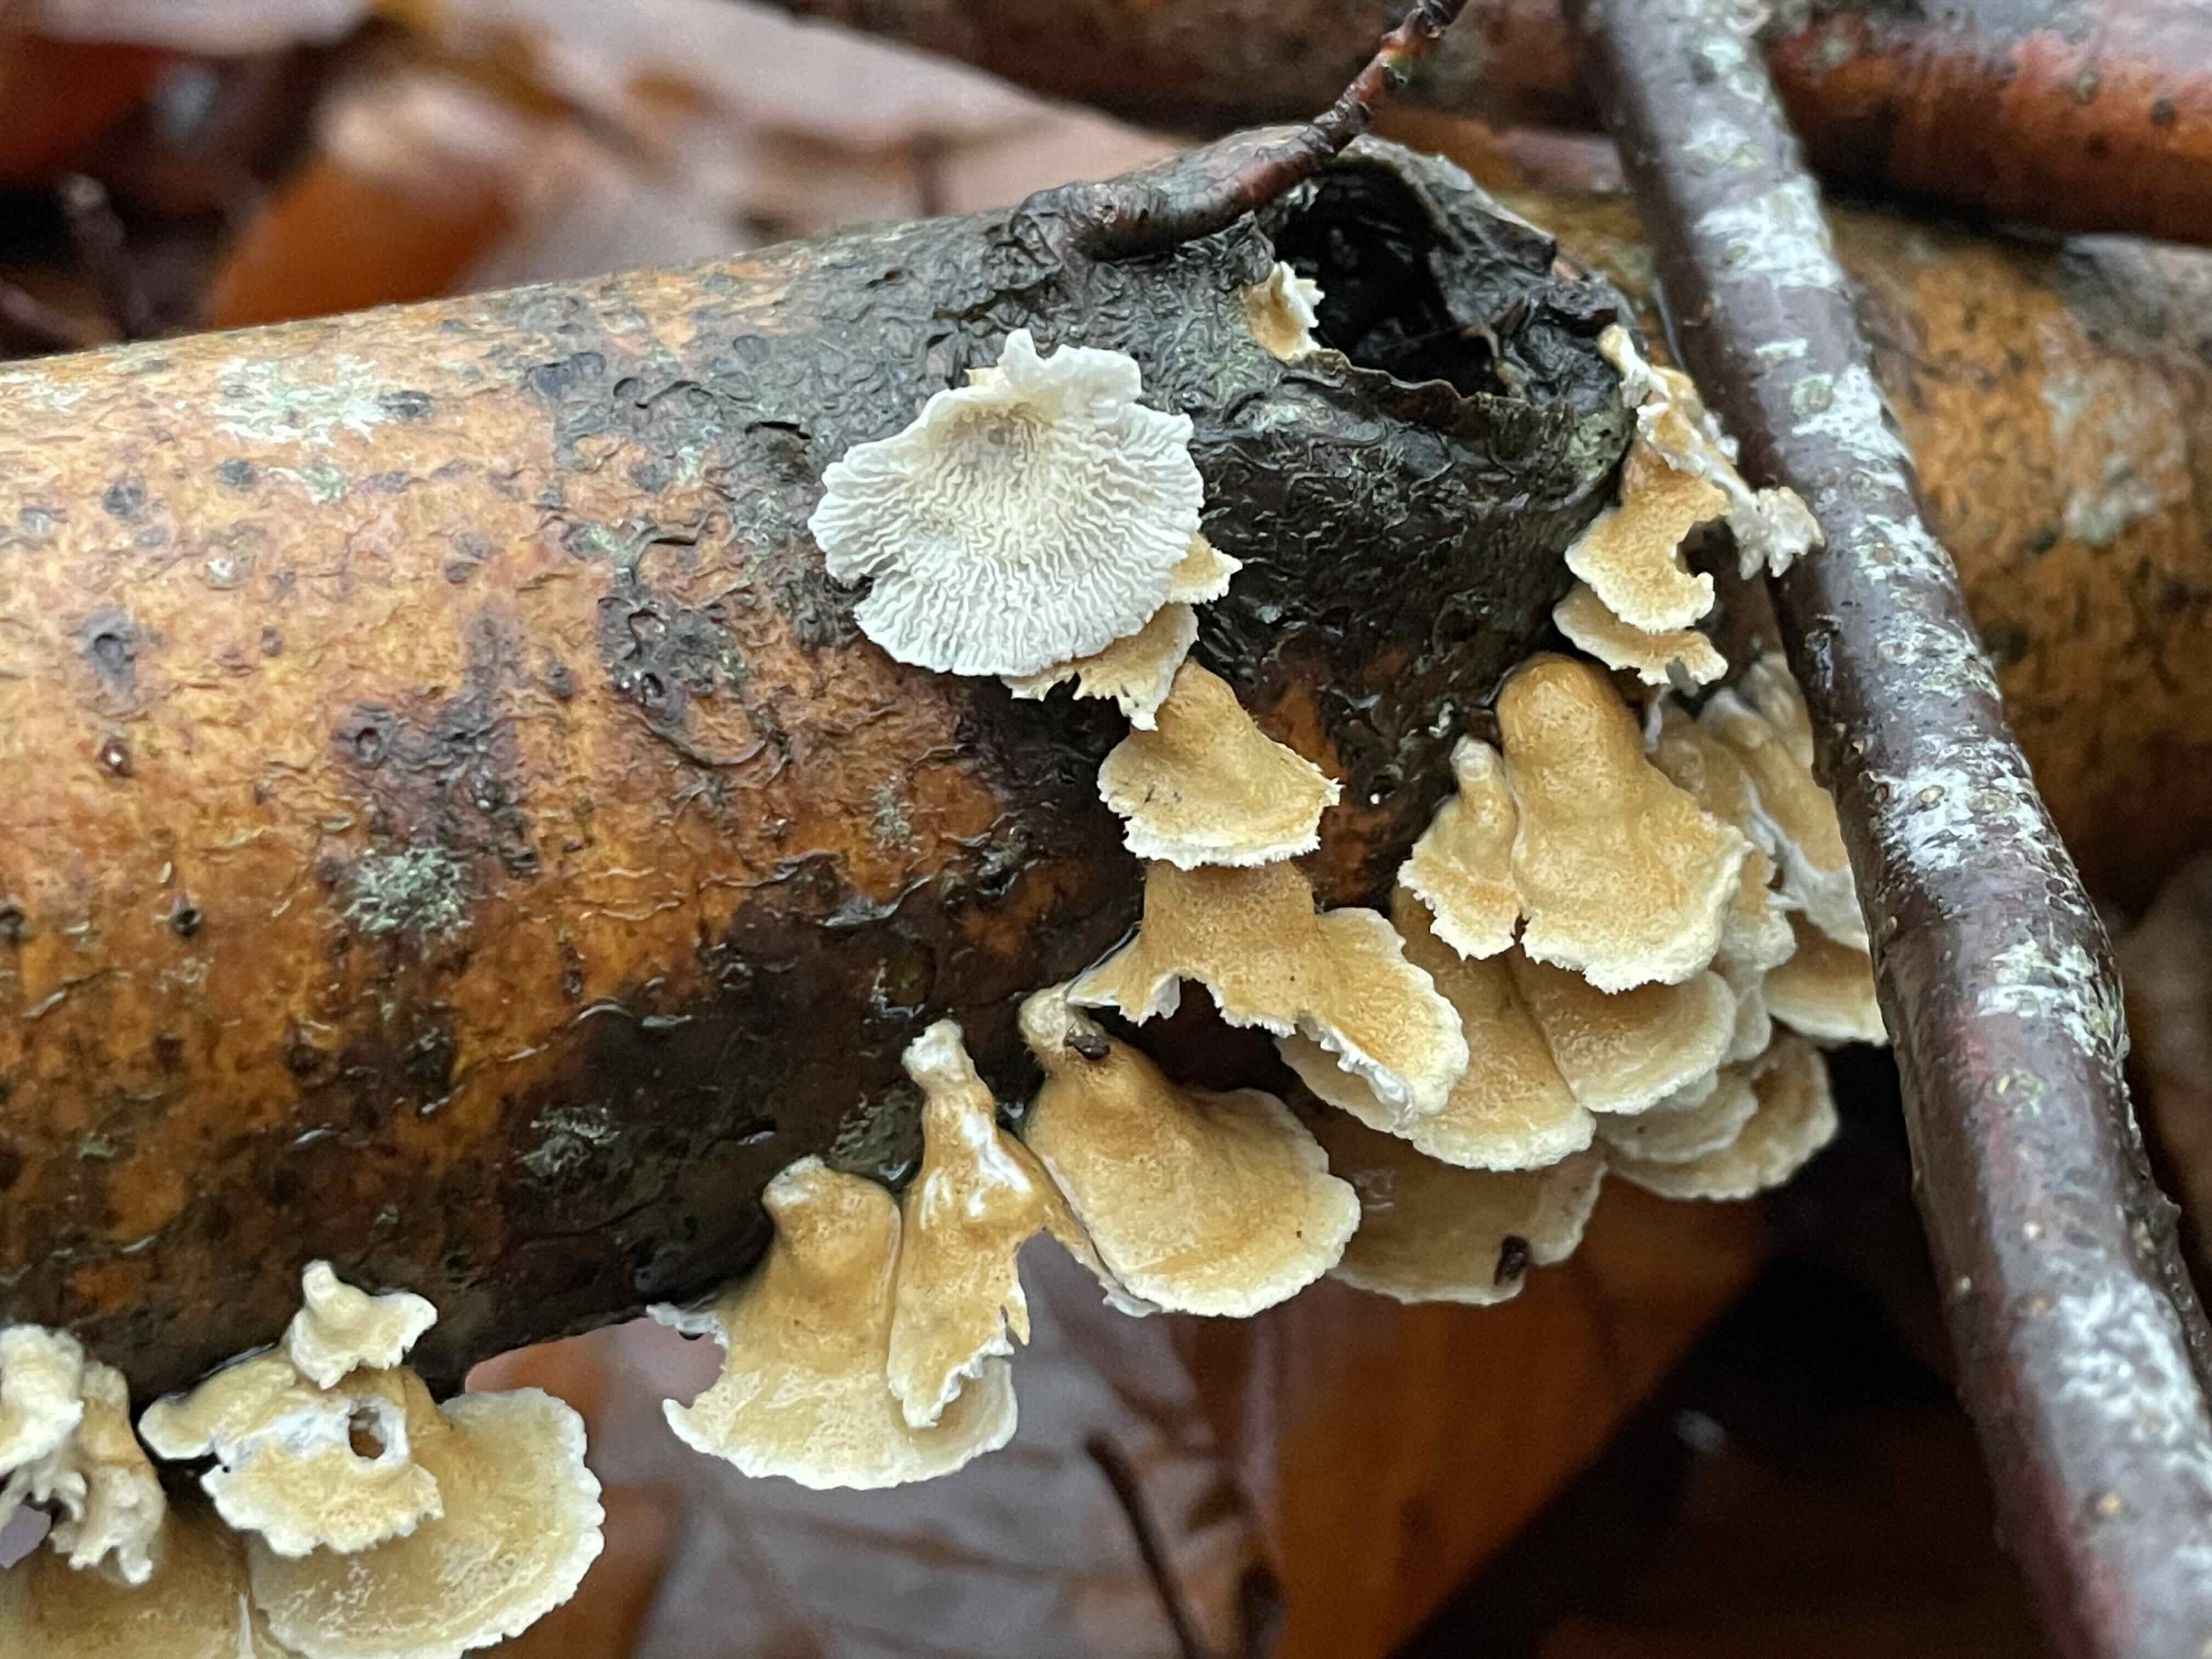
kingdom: Fungi
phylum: Basidiomycota
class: Agaricomycetes
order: Amylocorticiales
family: Amylocorticiaceae
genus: Plicaturopsis
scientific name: Plicaturopsis crispa
